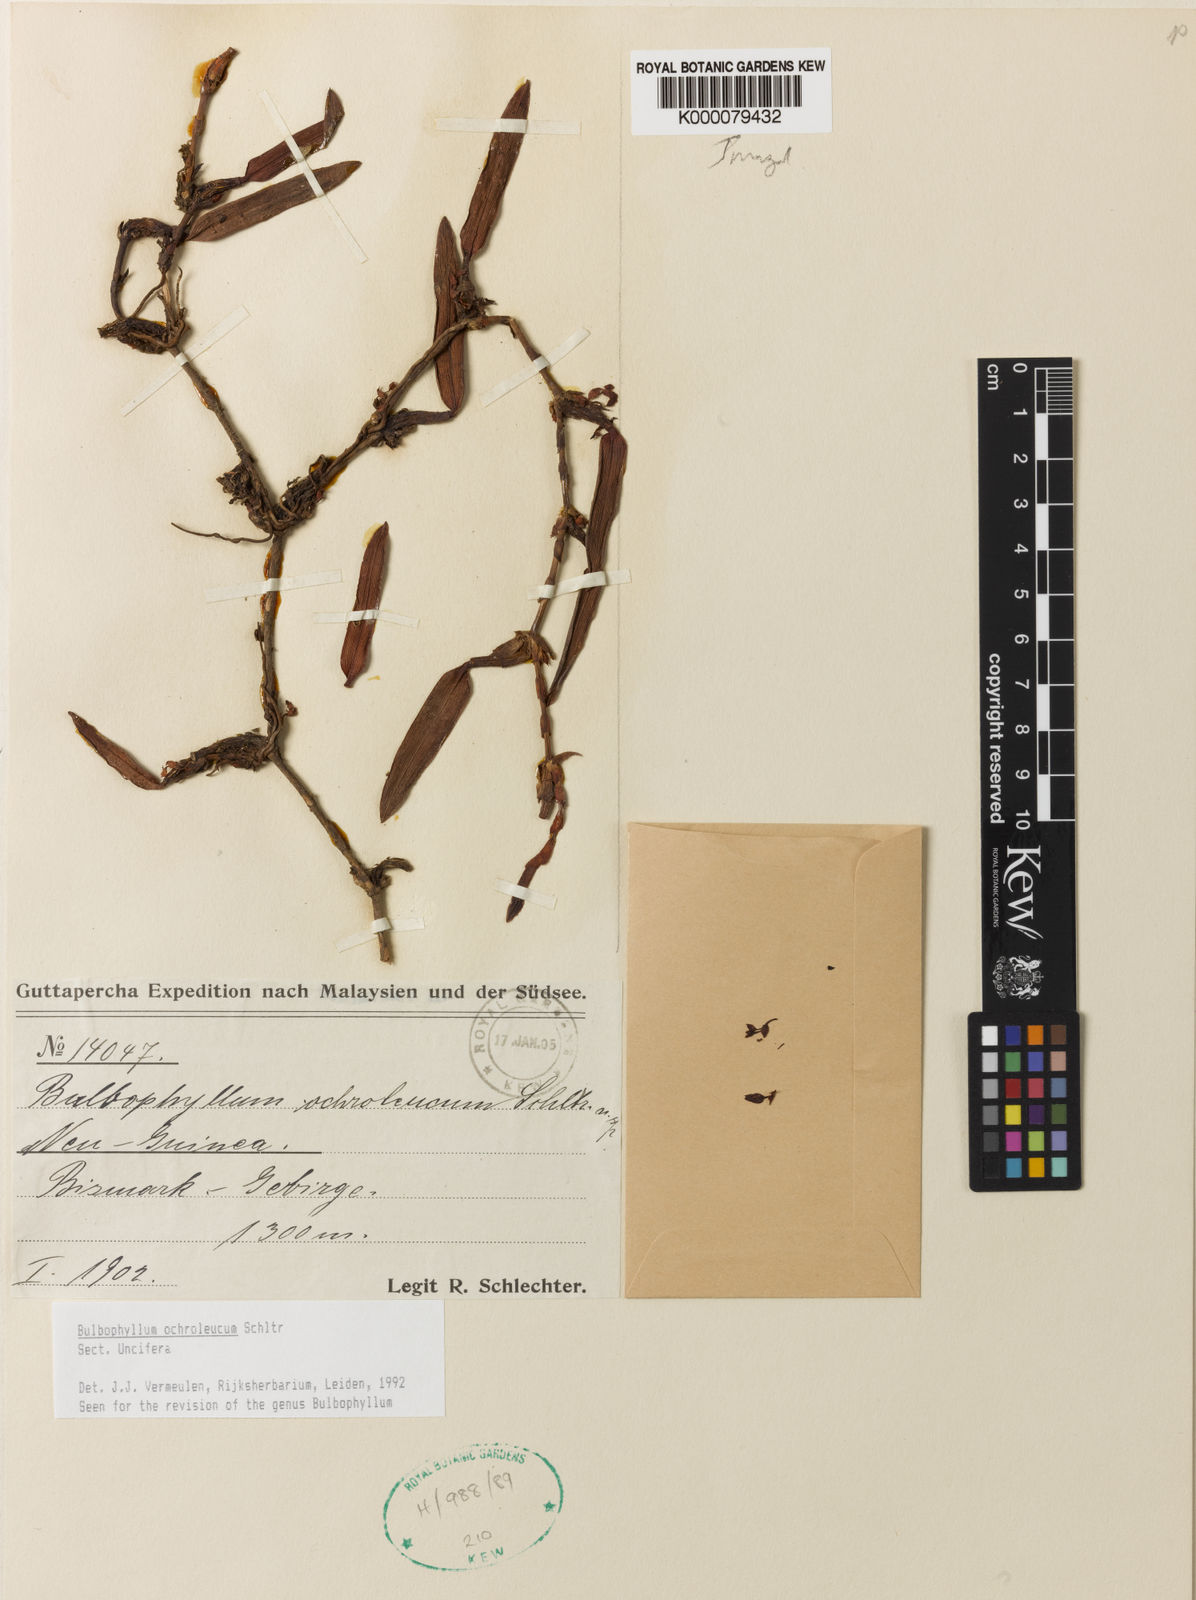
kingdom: Plantae
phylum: Tracheophyta
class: Liliopsida
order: Asparagales
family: Orchidaceae
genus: Bulbophyllum
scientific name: Bulbophyllum
